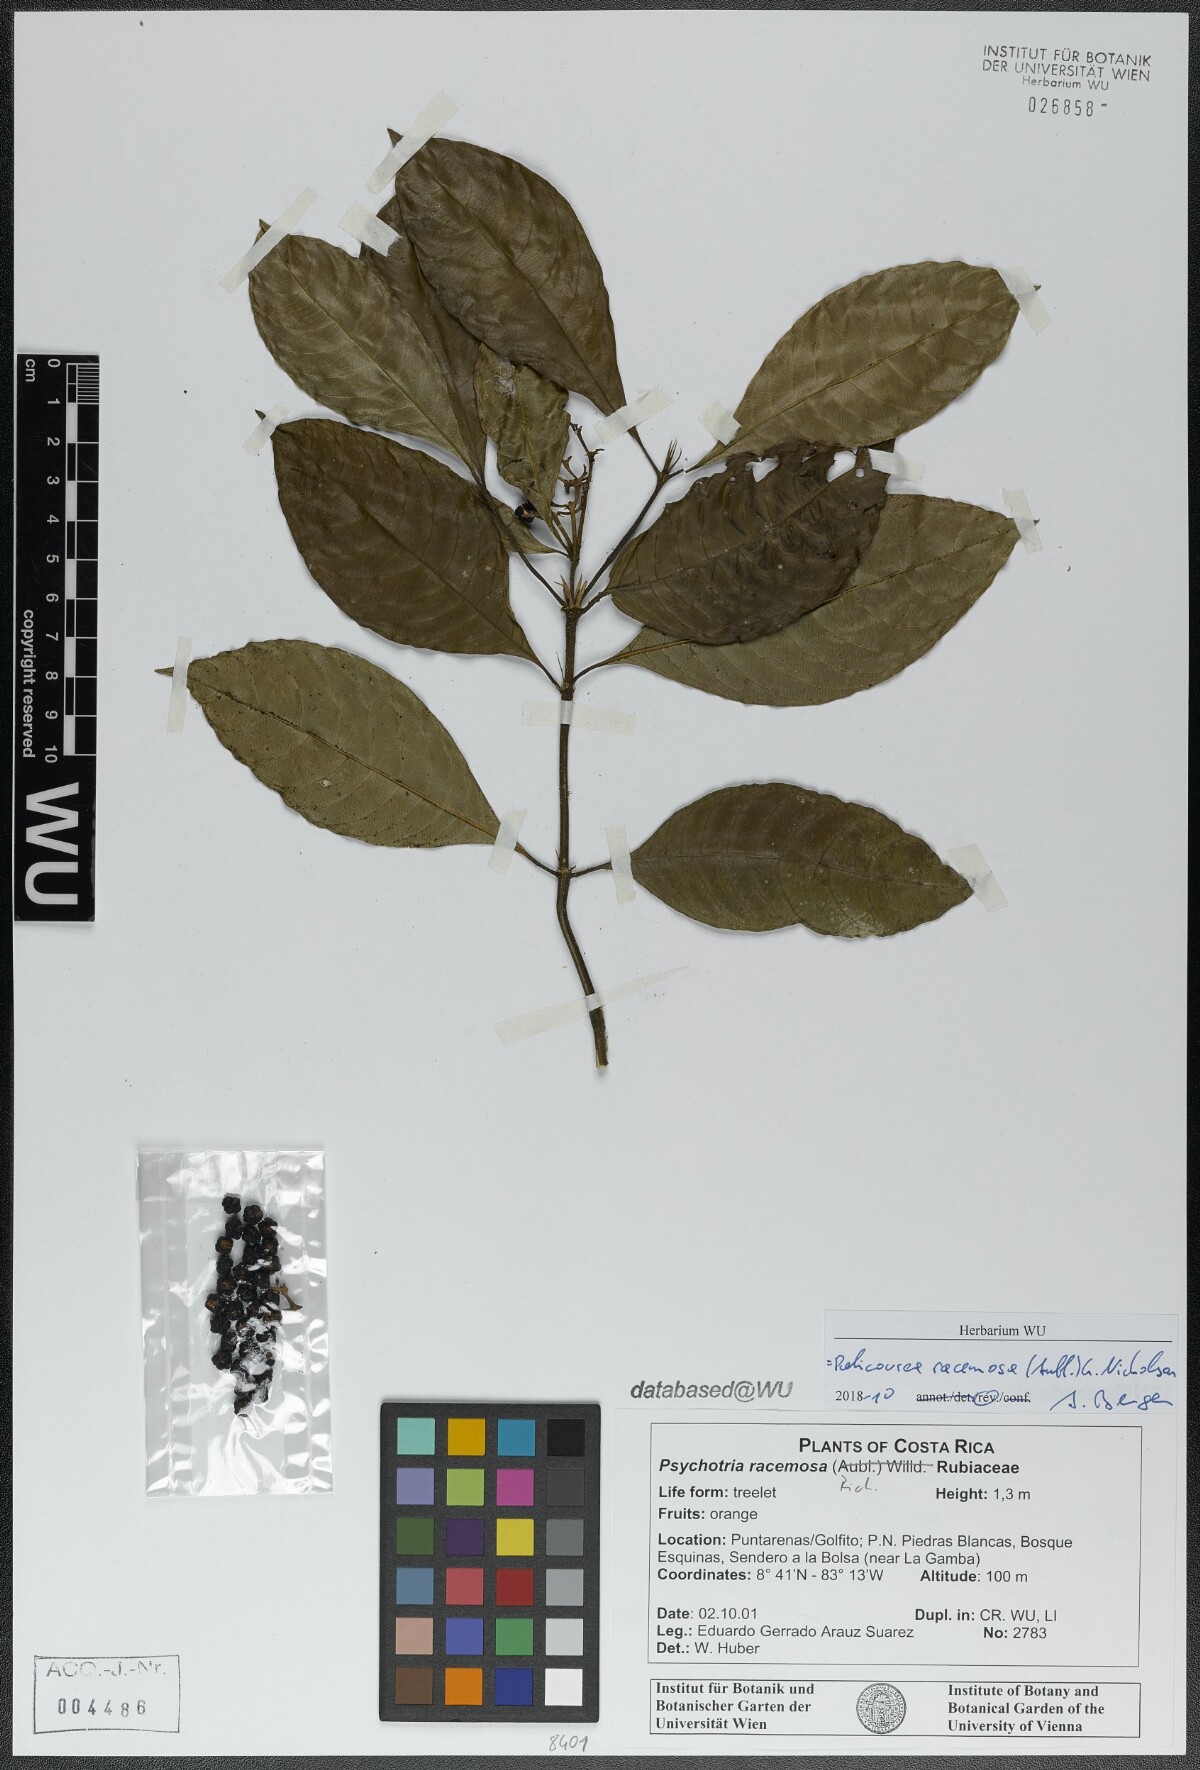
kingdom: Plantae
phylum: Tracheophyta
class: Magnoliopsida
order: Gentianales
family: Rubiaceae
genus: Palicourea
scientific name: Palicourea racemosa
